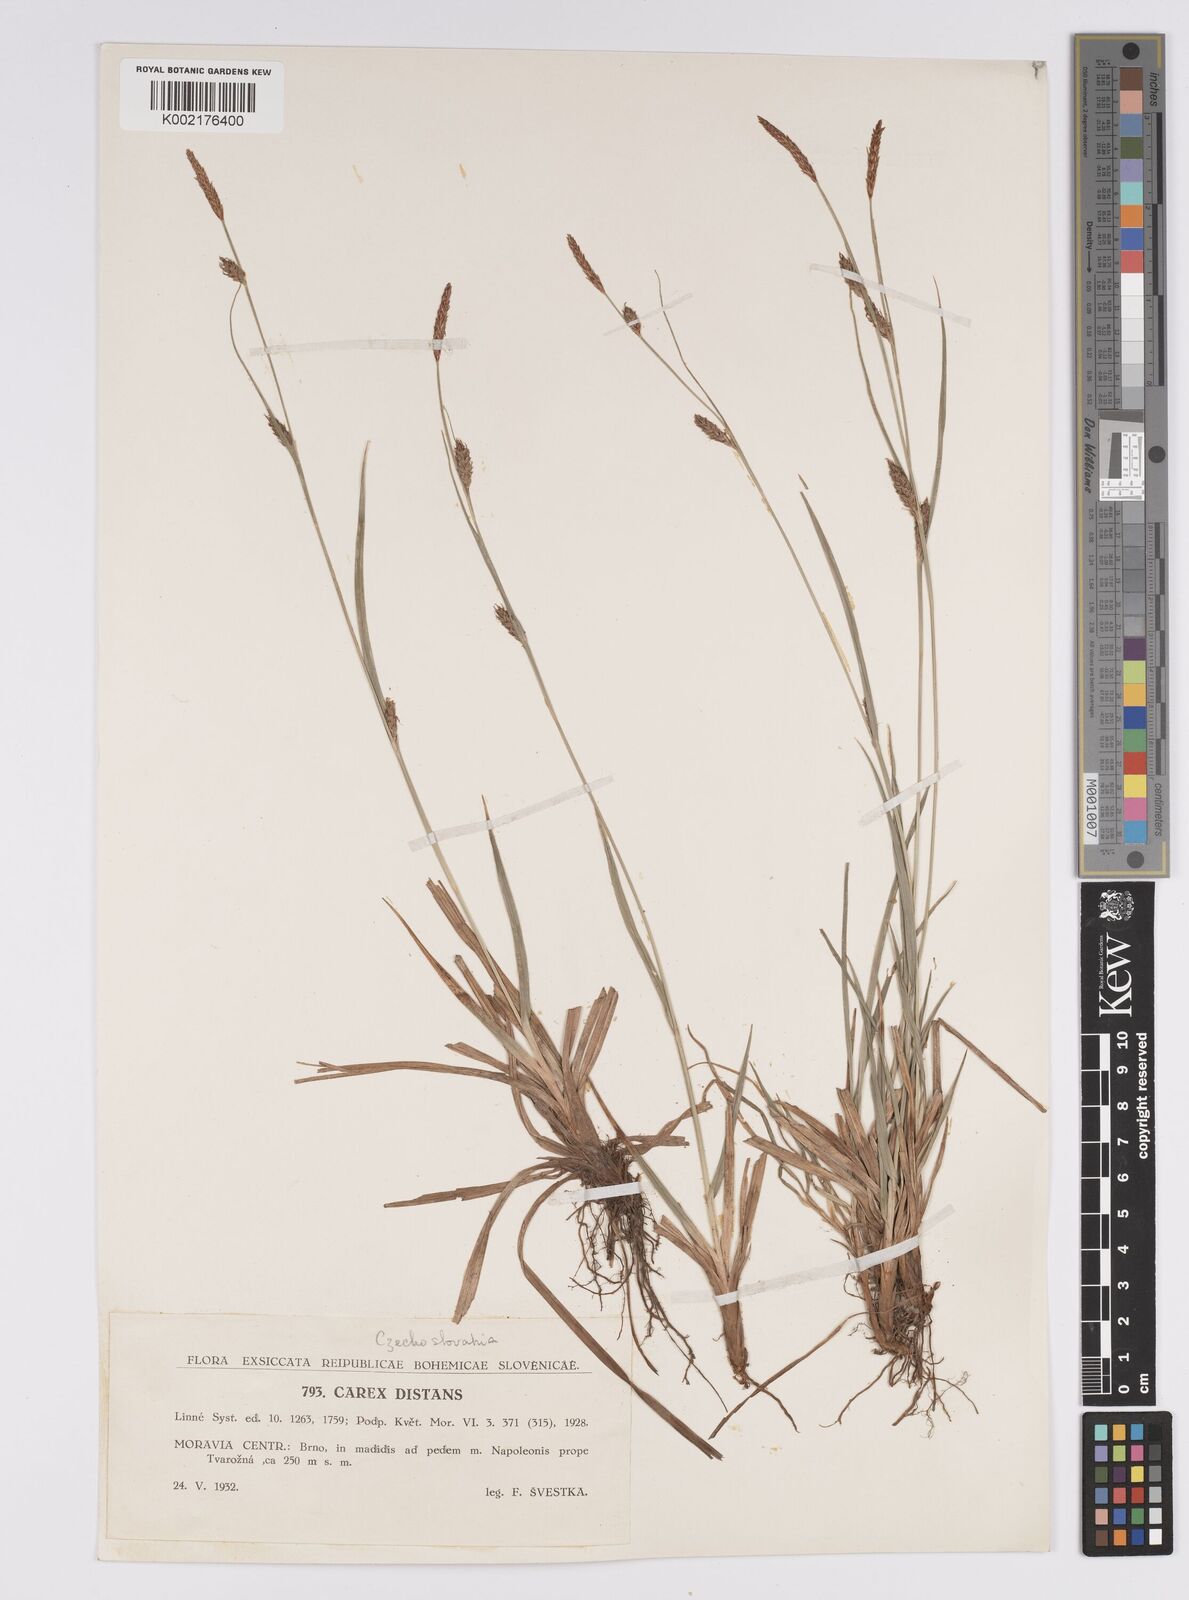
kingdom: Plantae
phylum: Tracheophyta
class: Liliopsida
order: Poales
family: Cyperaceae
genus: Carex
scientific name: Carex distans
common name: Distant sedge
